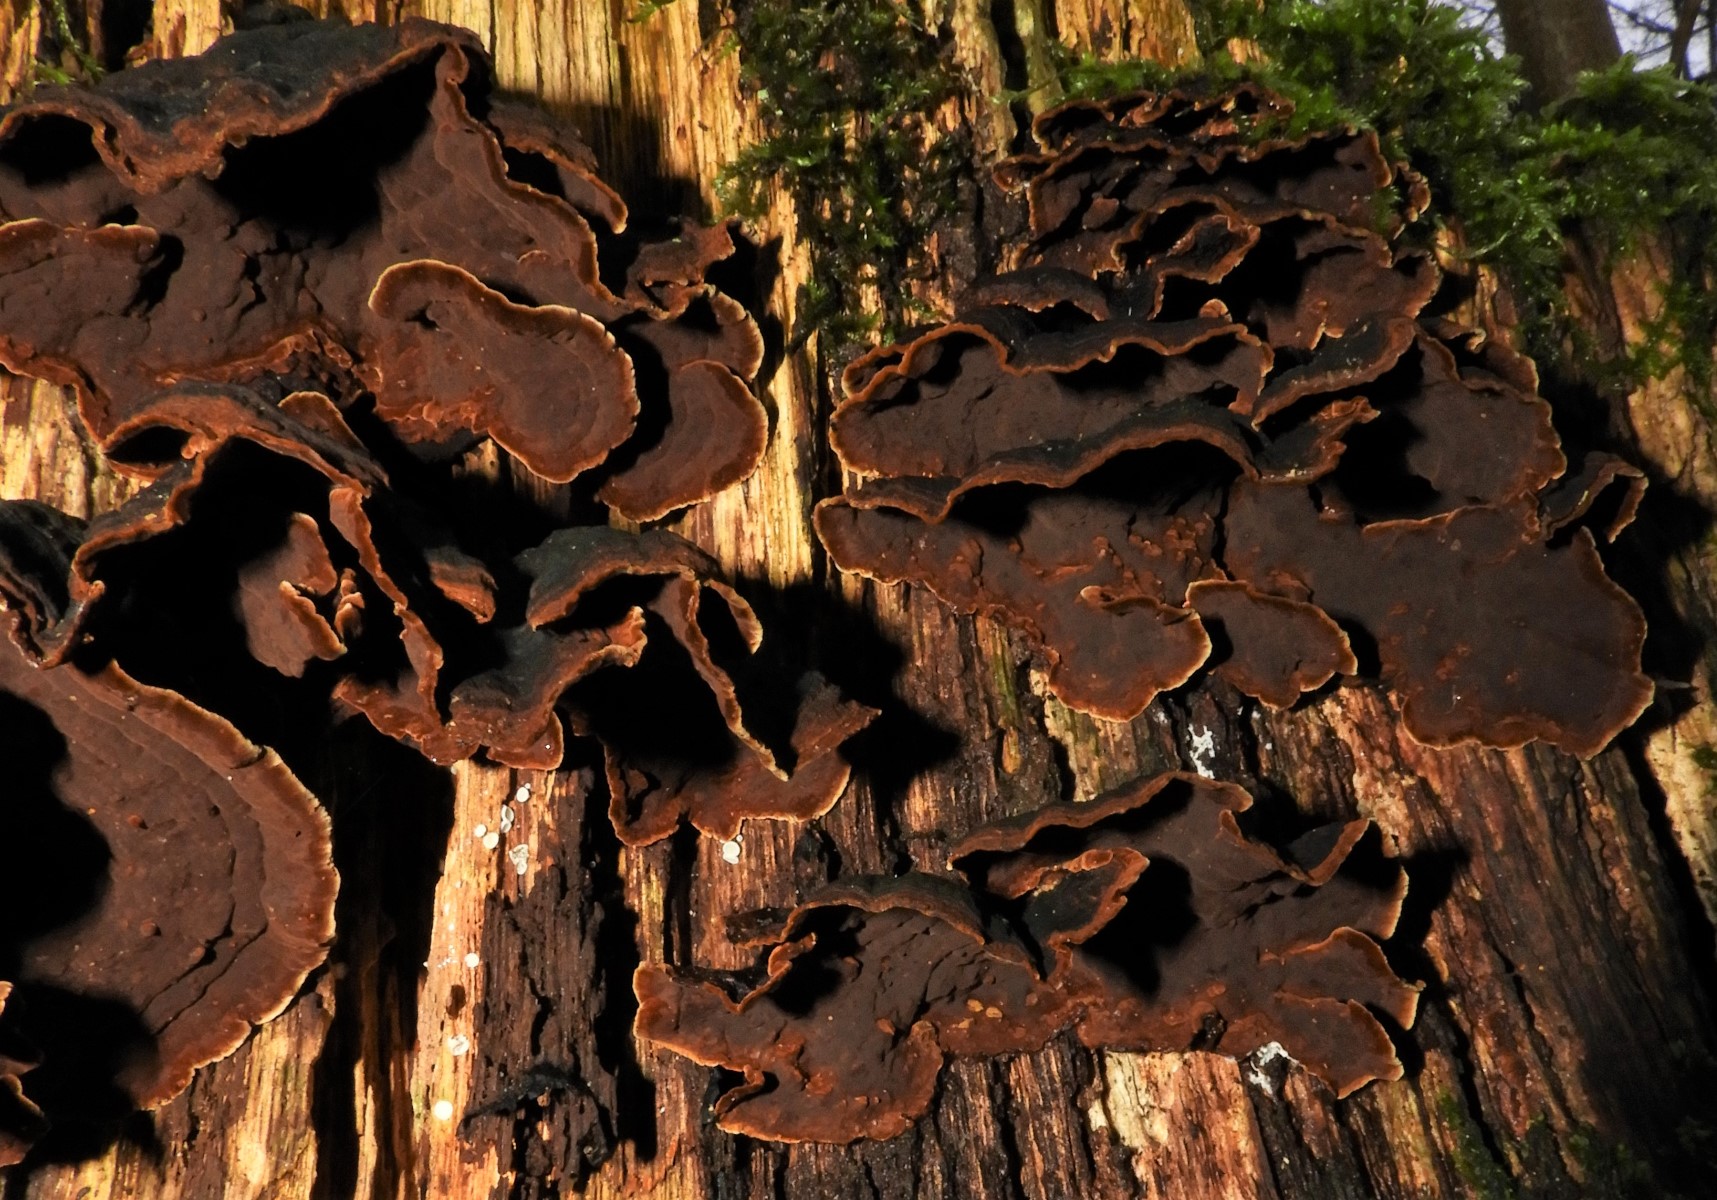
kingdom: Fungi
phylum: Basidiomycota
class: Agaricomycetes
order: Hymenochaetales
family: Hymenochaetaceae
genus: Hymenochaete
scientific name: Hymenochaete rubiginosa
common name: stiv ruslædersvamp
